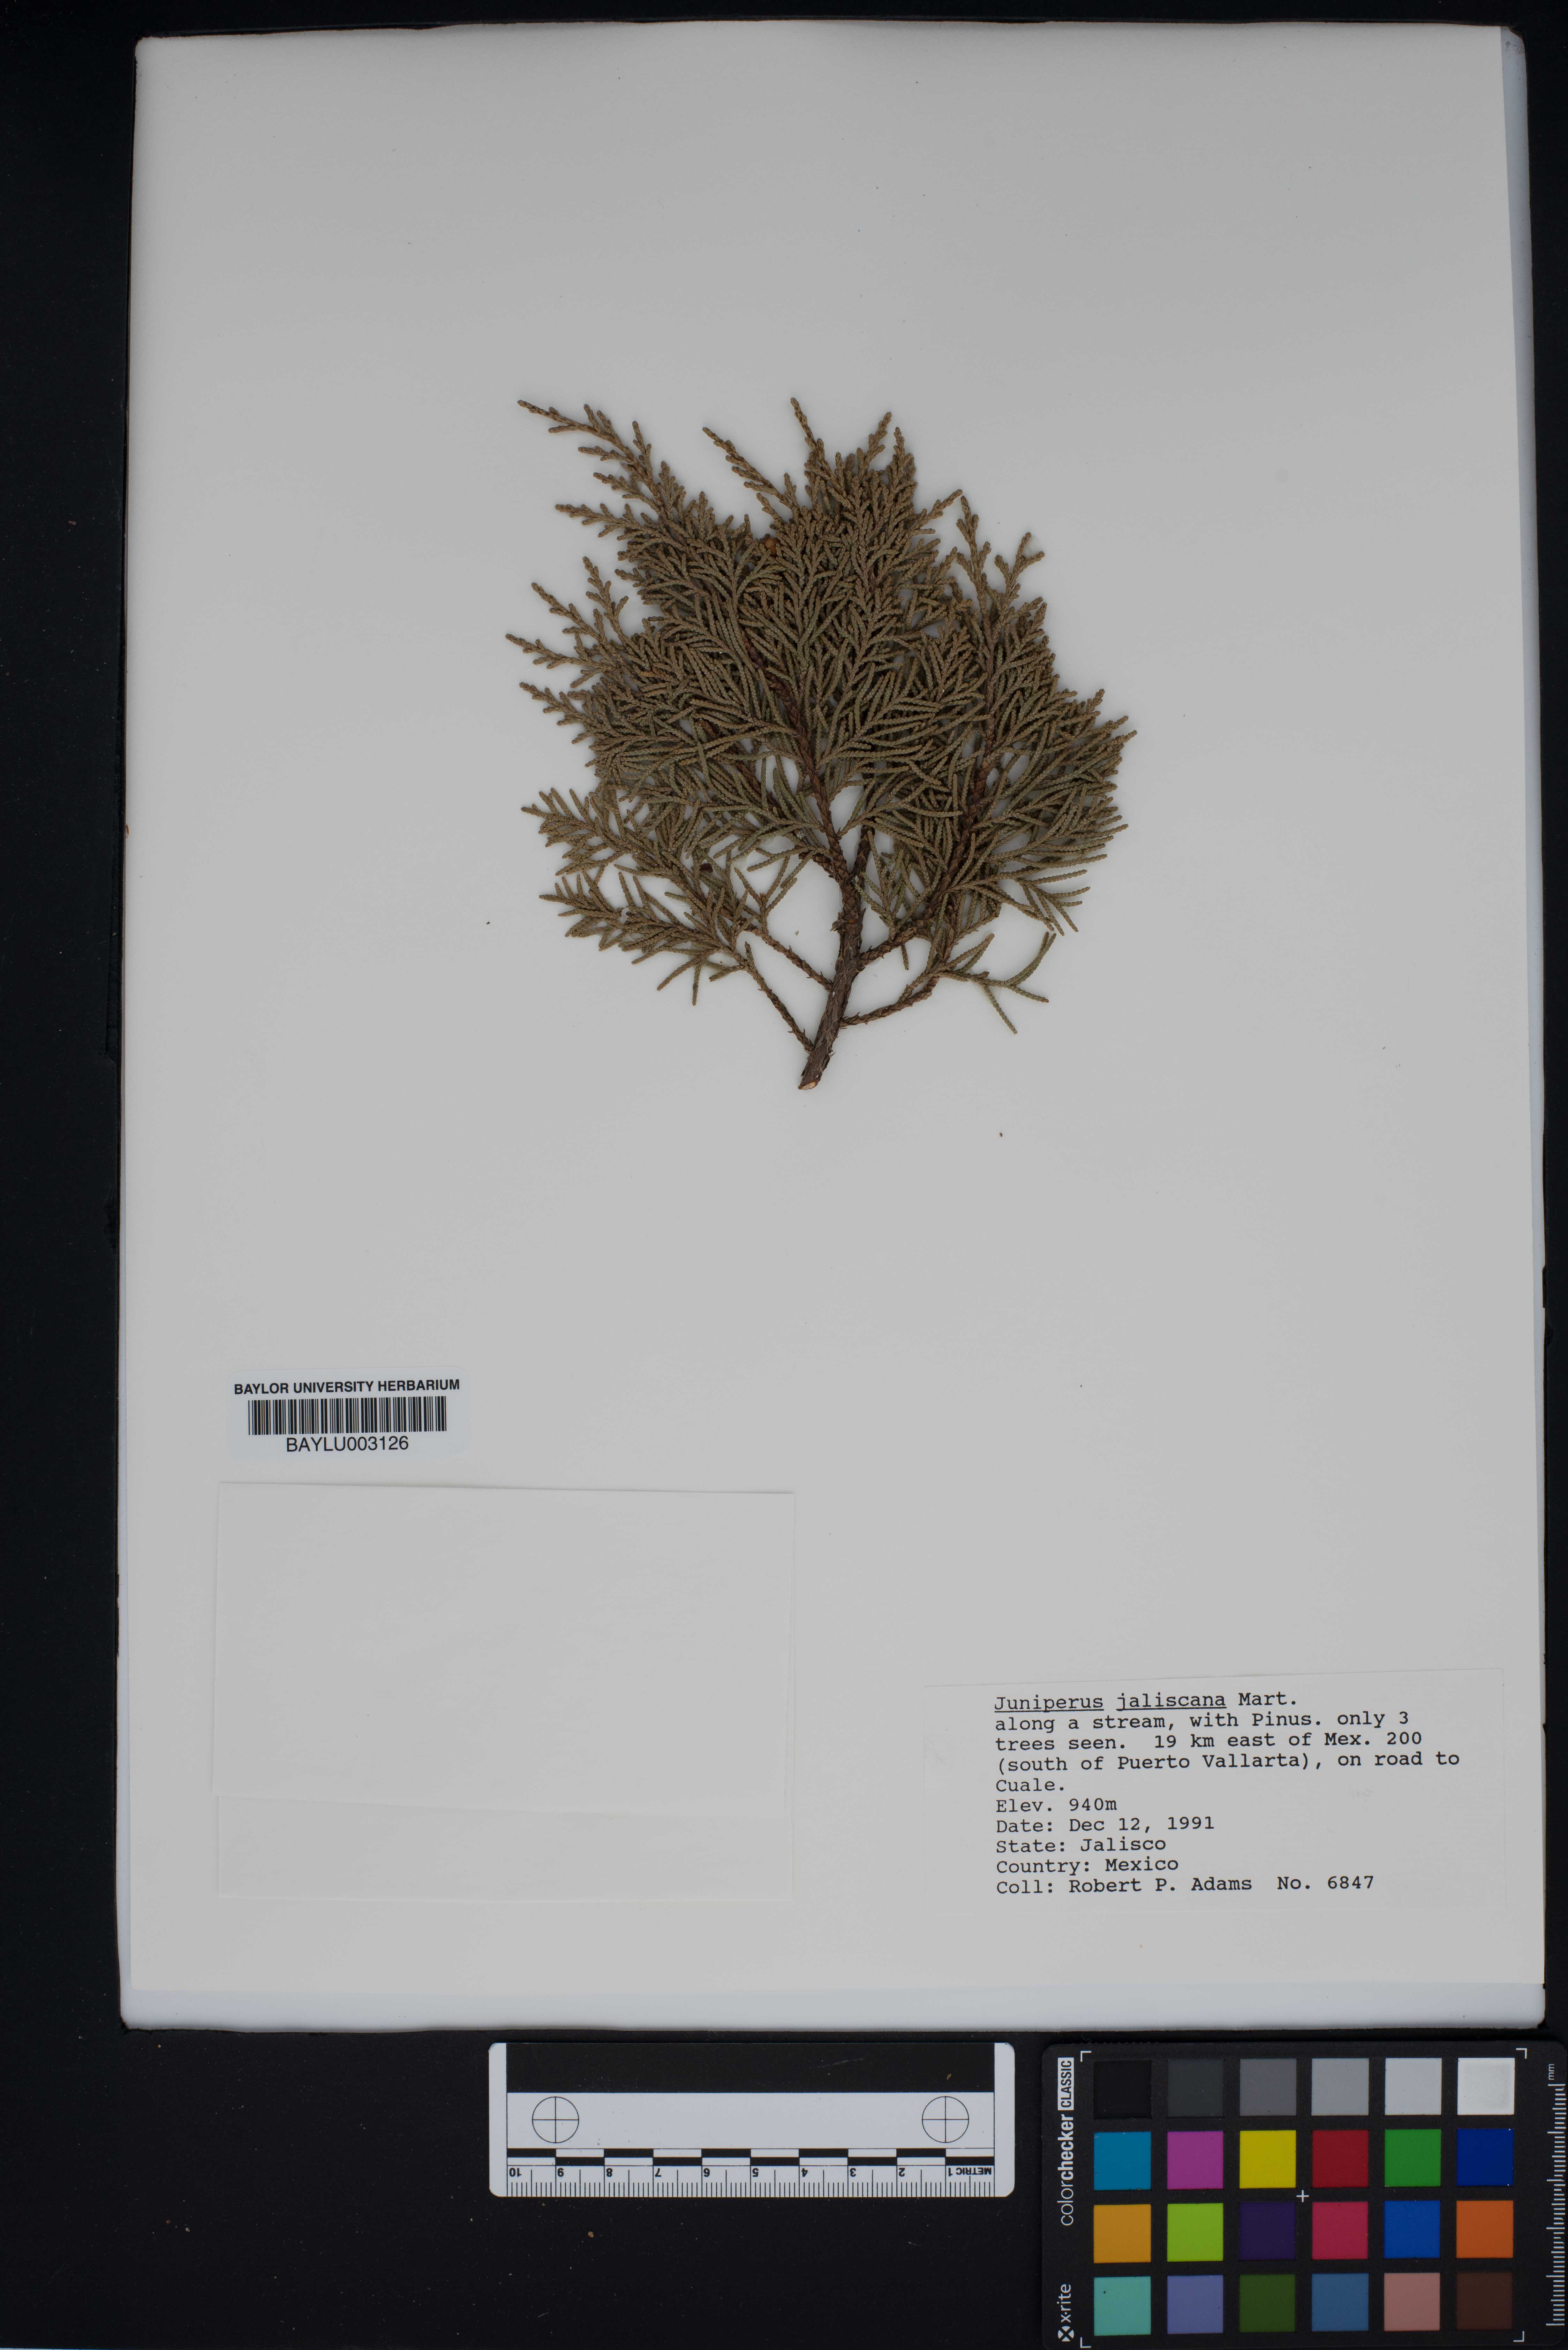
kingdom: Plantae
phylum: Tracheophyta
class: Pinopsida
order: Pinales
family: Cupressaceae
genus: Juniperus
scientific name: Juniperus jaliscana
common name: Jalisco juniper
